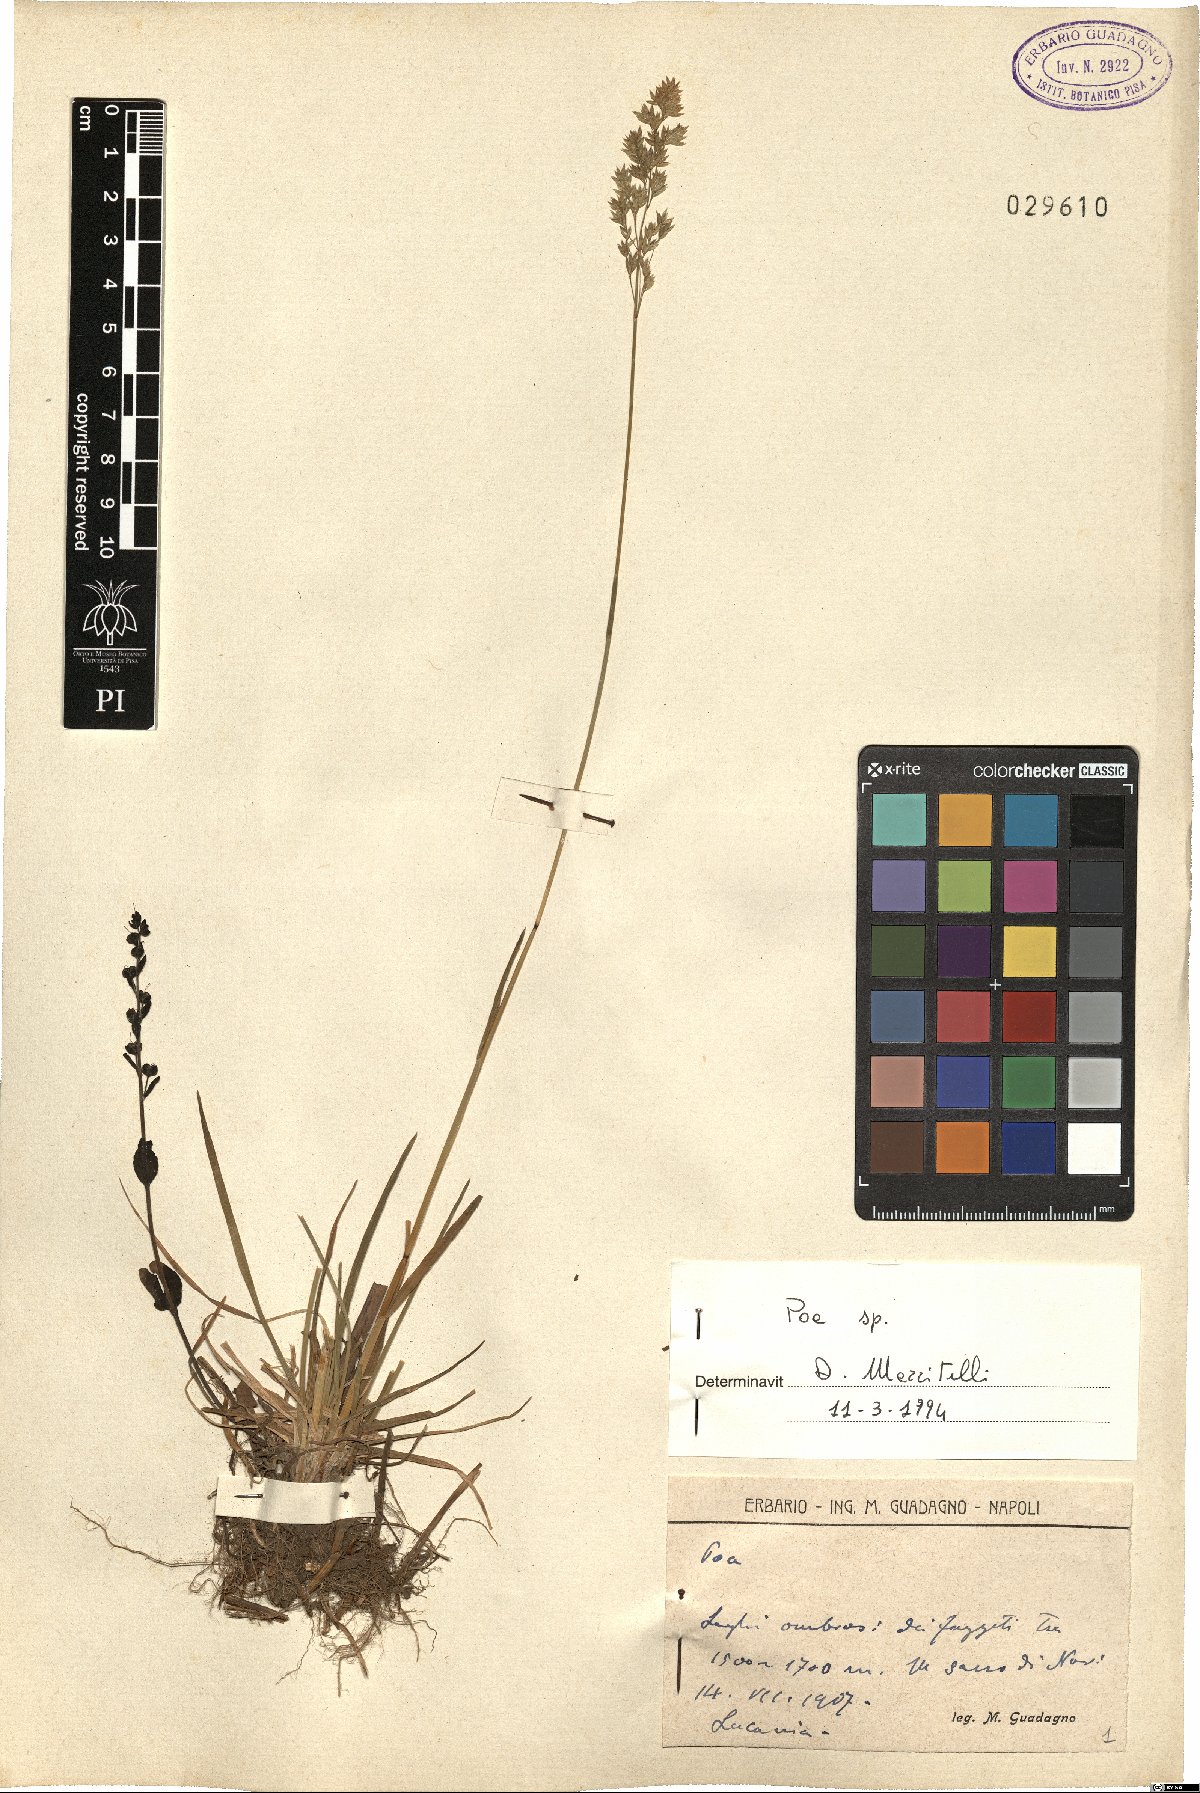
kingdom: Plantae
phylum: Tracheophyta
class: Liliopsida
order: Poales
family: Poaceae
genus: Poa
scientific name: Poa
